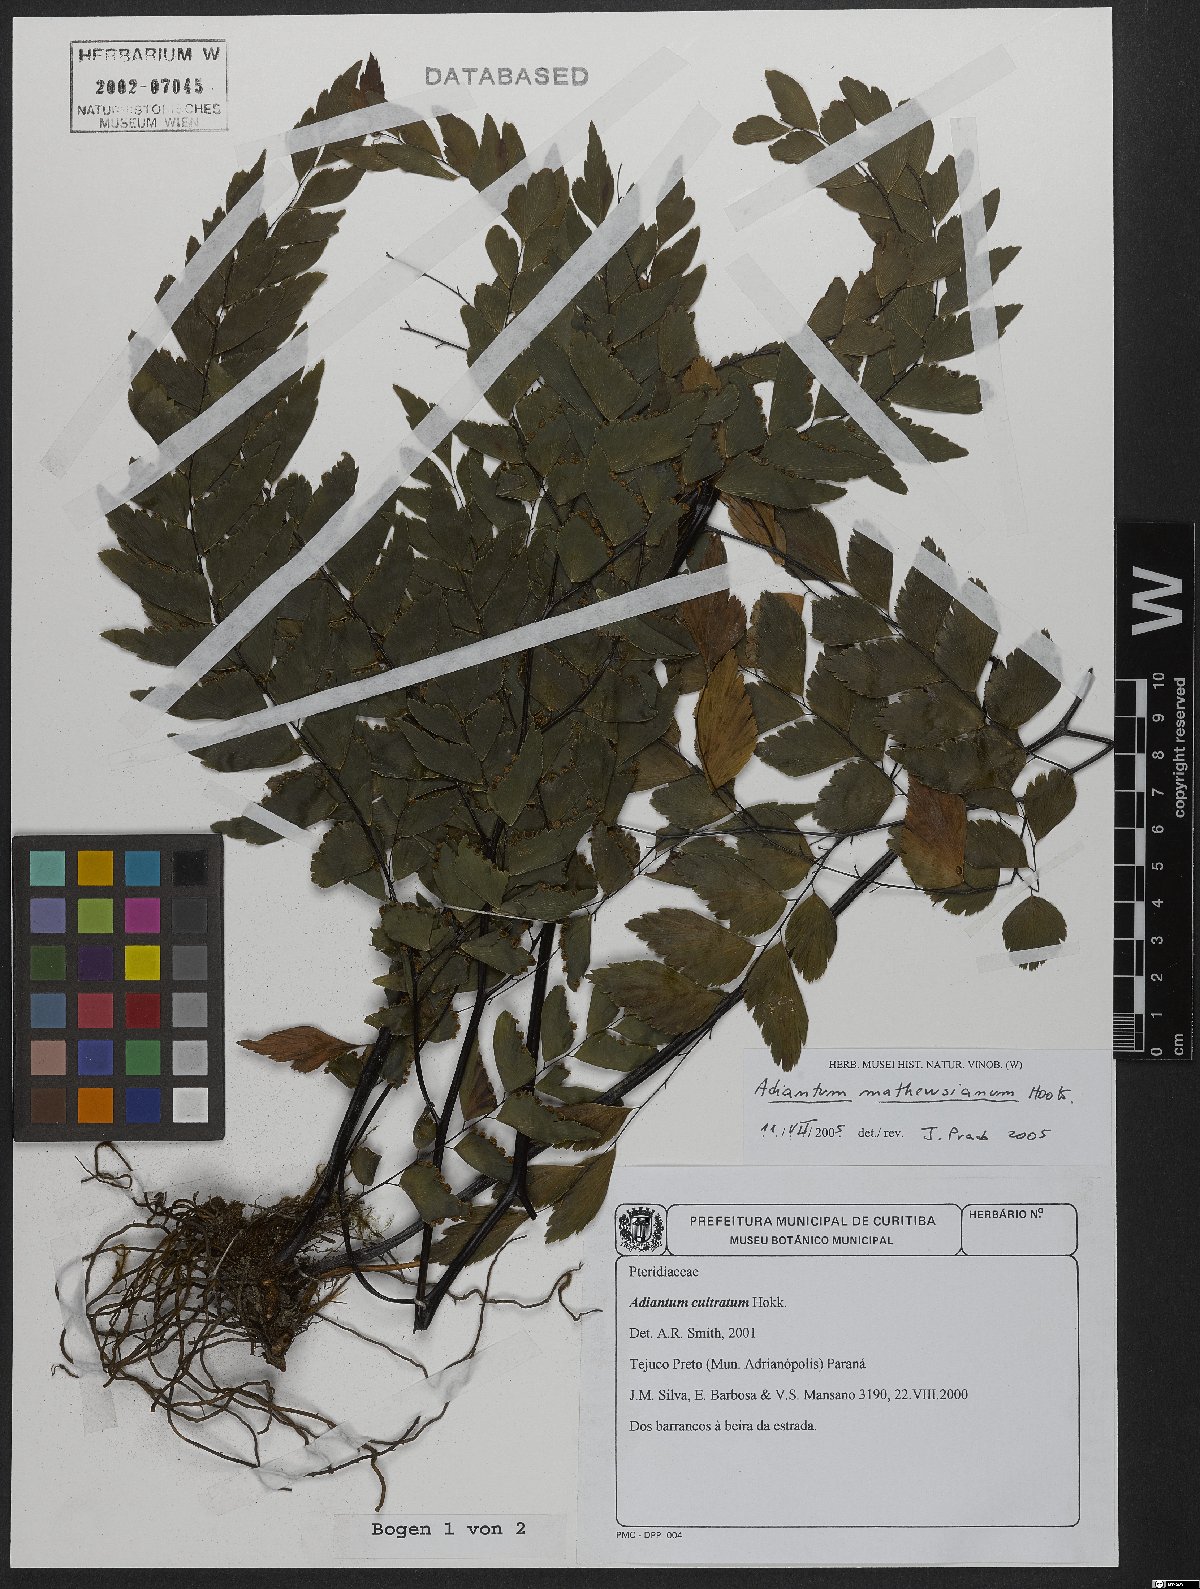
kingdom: Plantae
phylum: Tracheophyta
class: Polypodiopsida
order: Polypodiales
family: Pteridaceae
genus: Adiantum
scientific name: Adiantum mathewsianum
